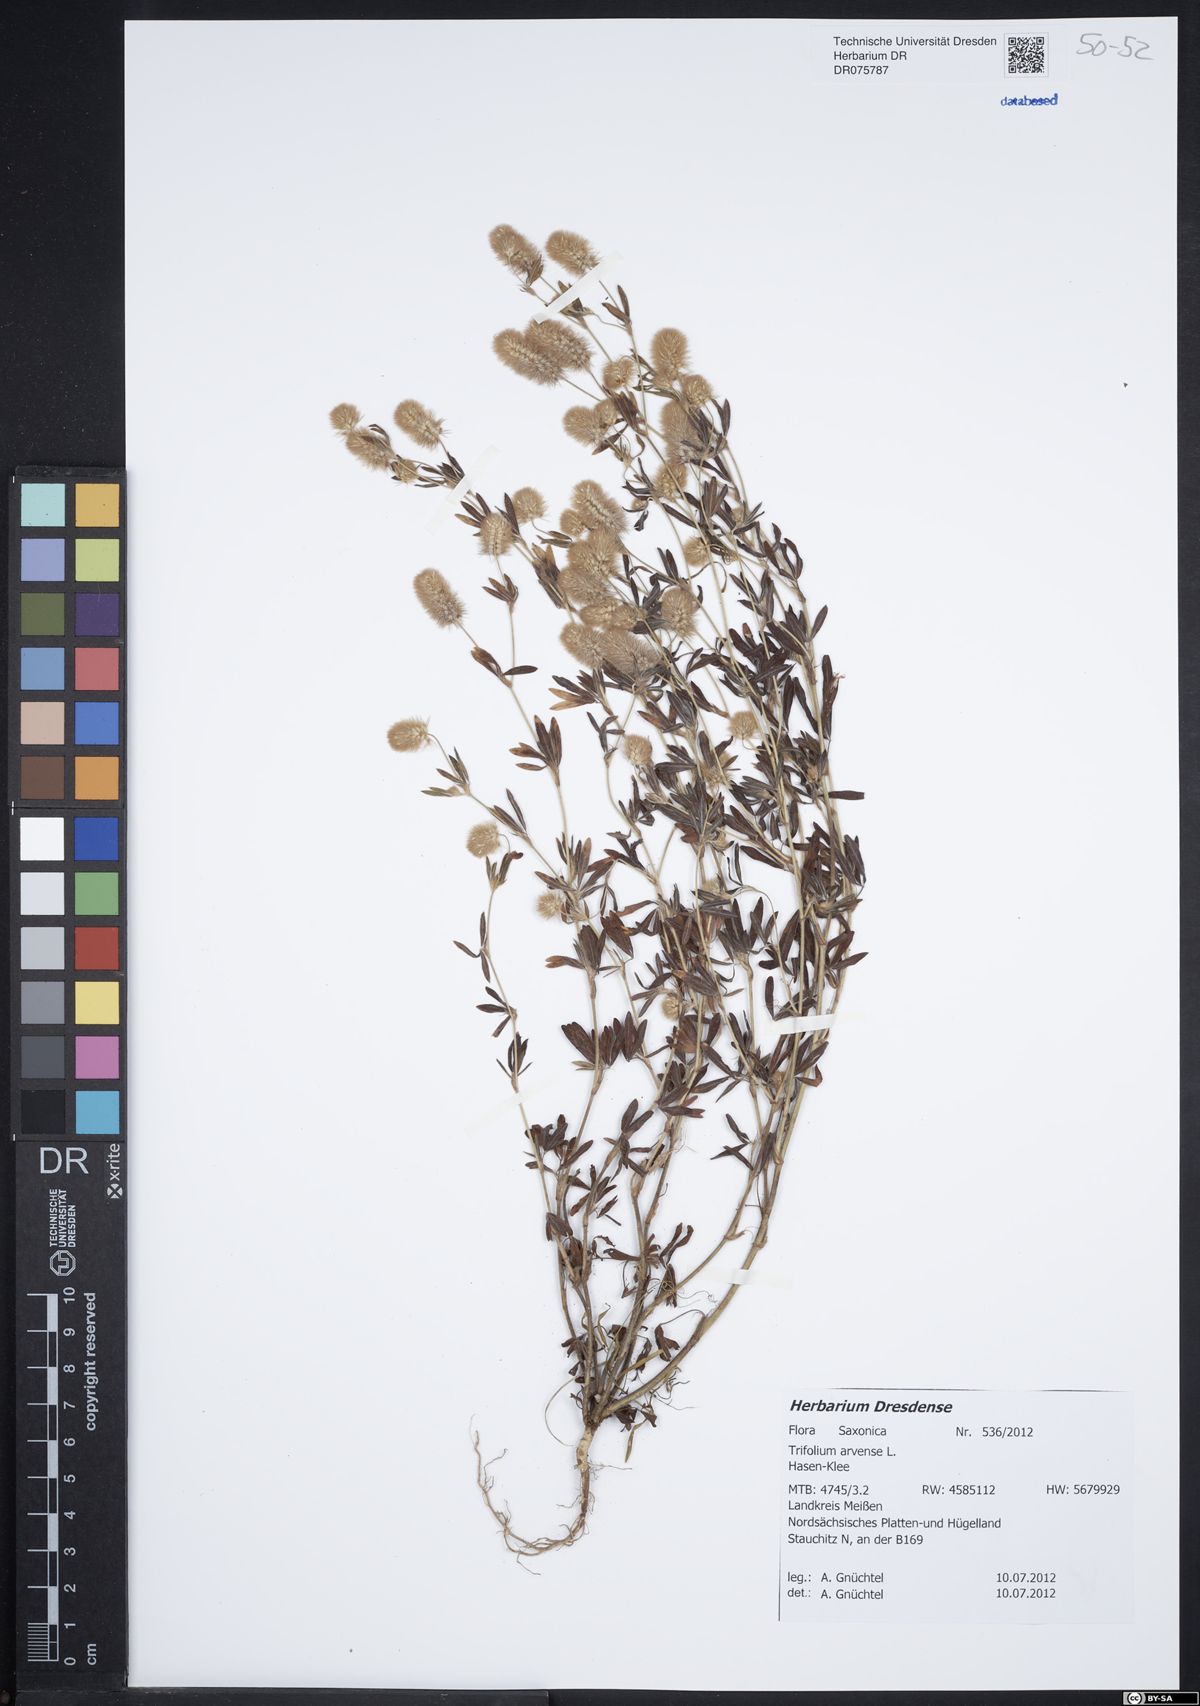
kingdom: Plantae
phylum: Tracheophyta
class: Magnoliopsida
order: Fabales
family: Fabaceae
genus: Trifolium
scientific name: Trifolium arvense
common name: Hare's-foot clover
